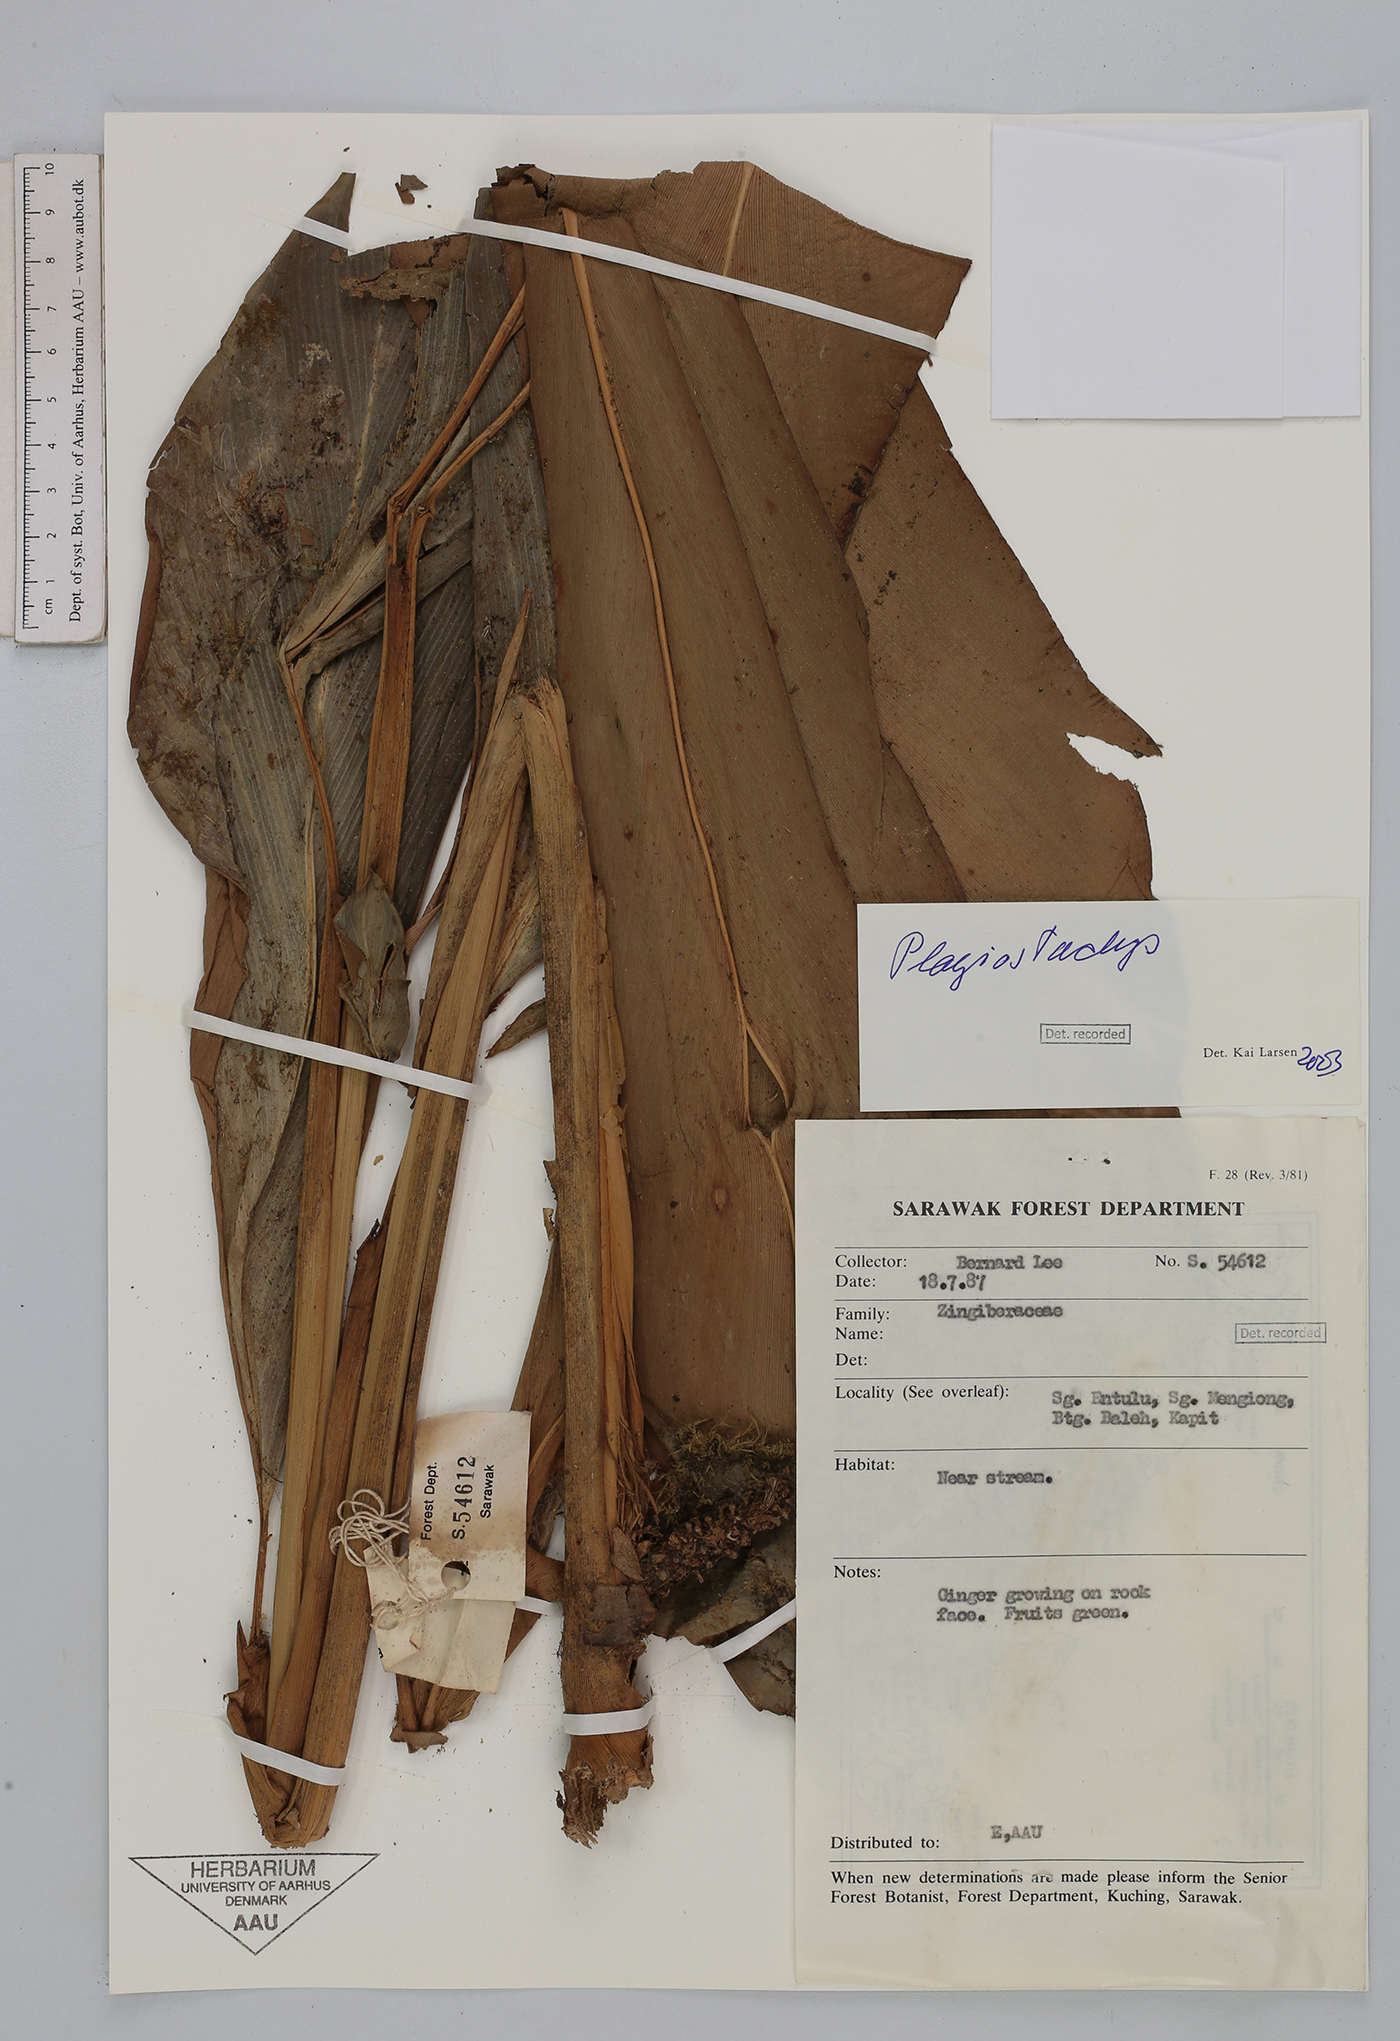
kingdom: Plantae
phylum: Tracheophyta
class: Liliopsida
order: Zingiberales
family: Zingiberaceae
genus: Plagiostachys
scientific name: Plagiostachys
